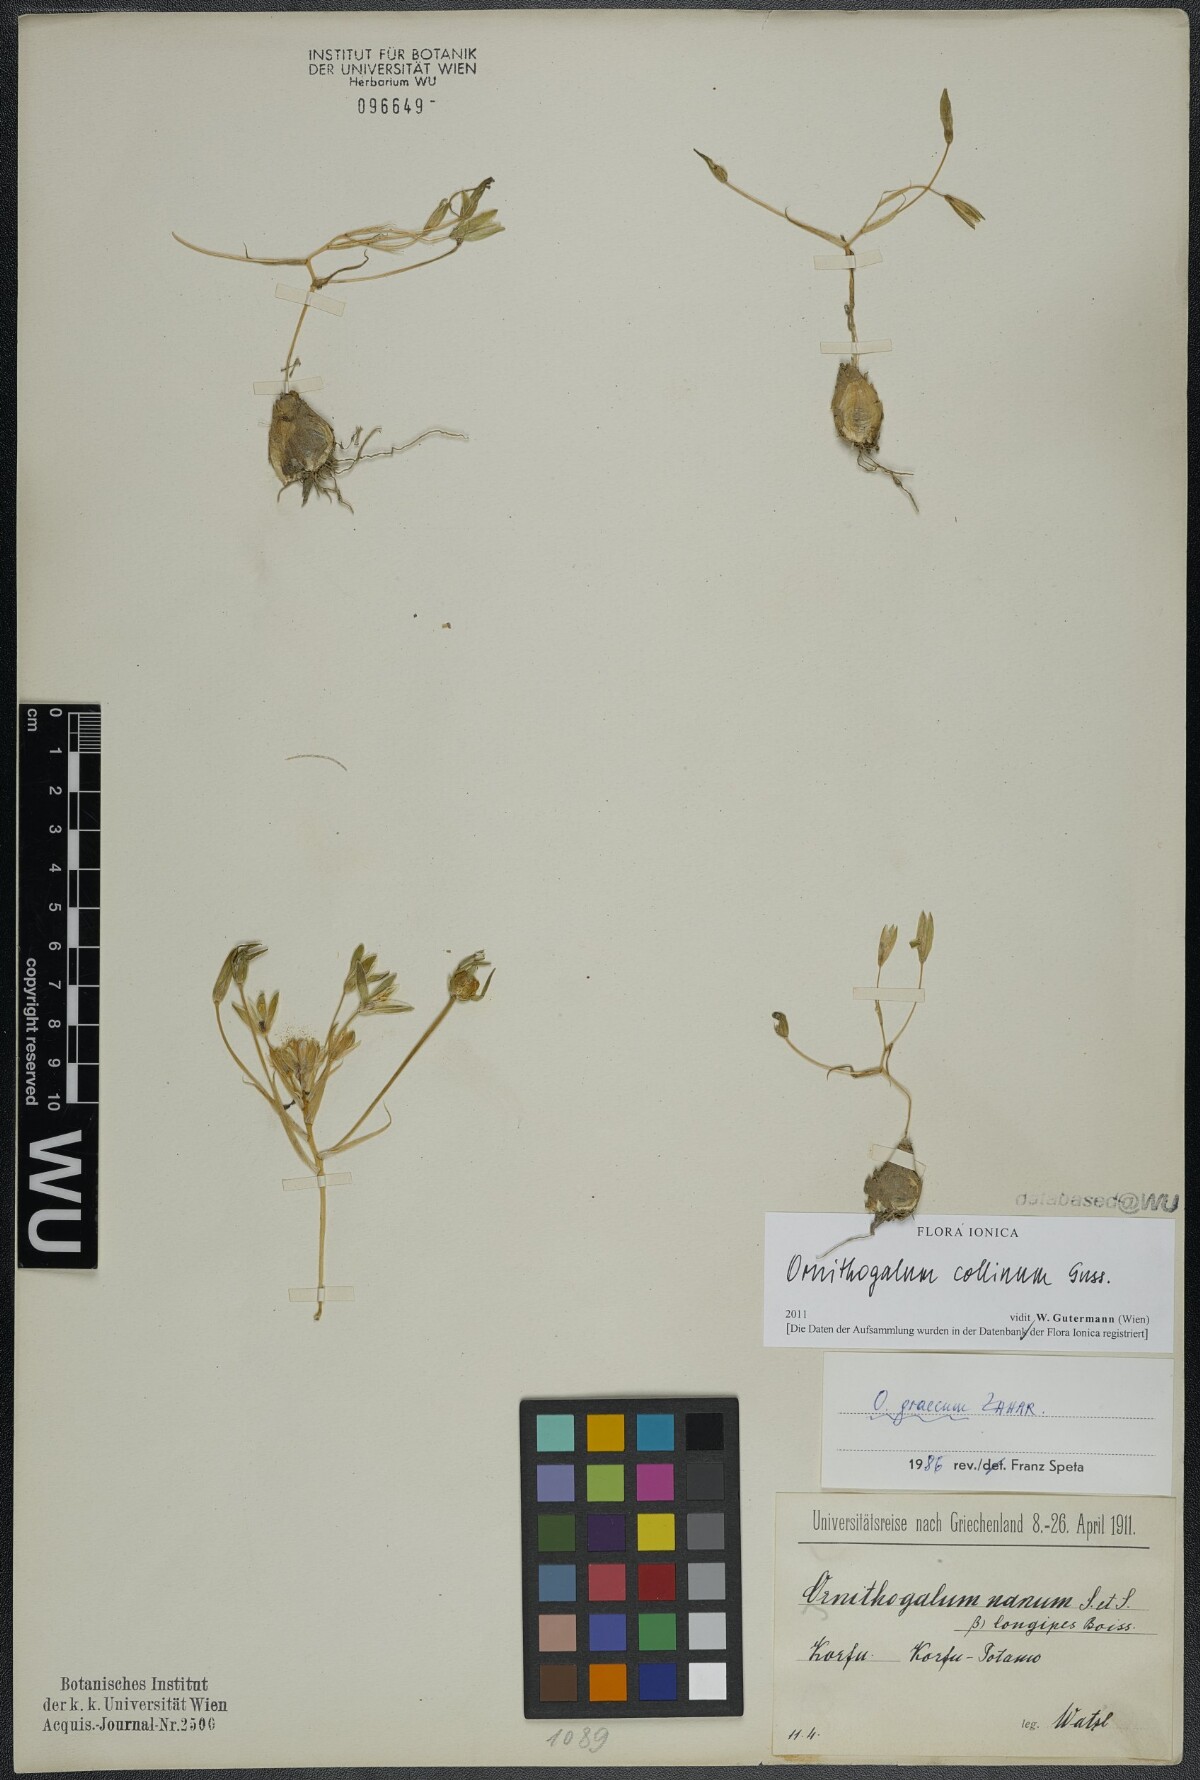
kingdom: Plantae
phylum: Tracheophyta
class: Liliopsida
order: Asparagales
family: Asparagaceae
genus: Ornithogalum
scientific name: Ornithogalum collinum
